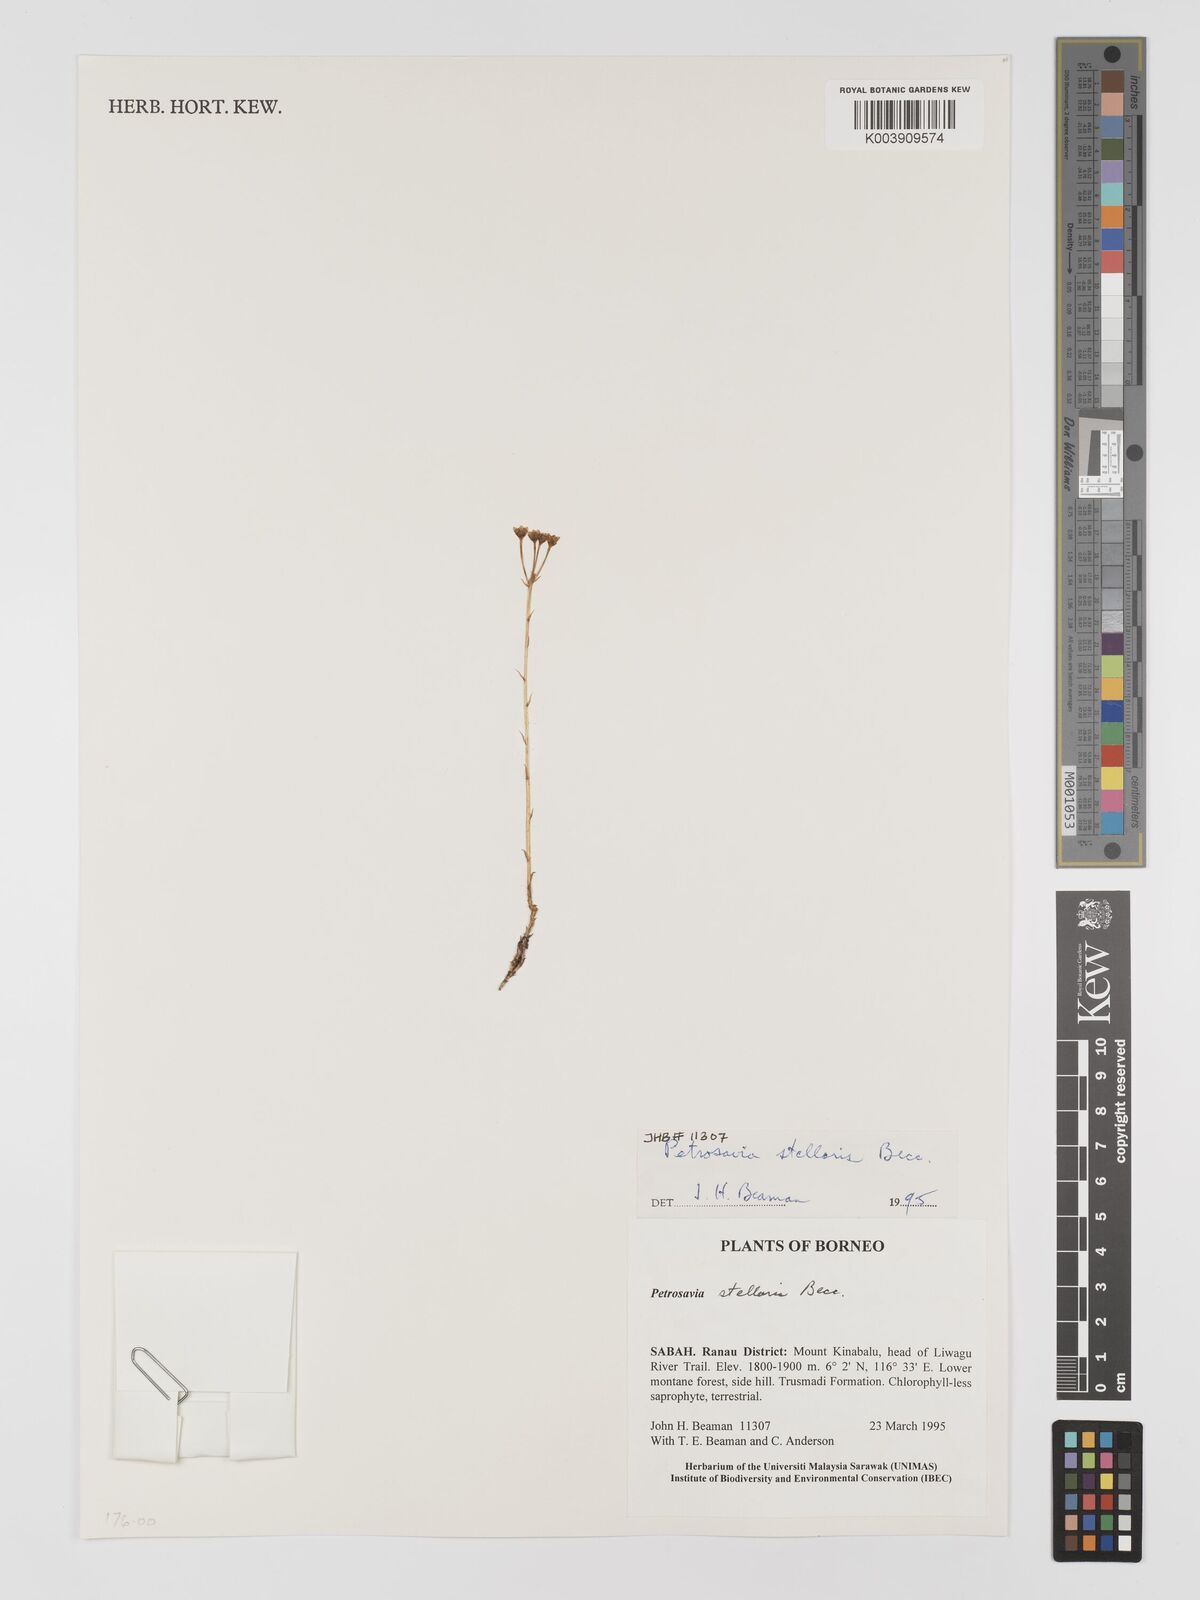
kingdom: Plantae
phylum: Tracheophyta
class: Liliopsida
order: Petrosaviales
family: Petrosaviaceae
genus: Petrosavia
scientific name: Petrosavia stellaris
